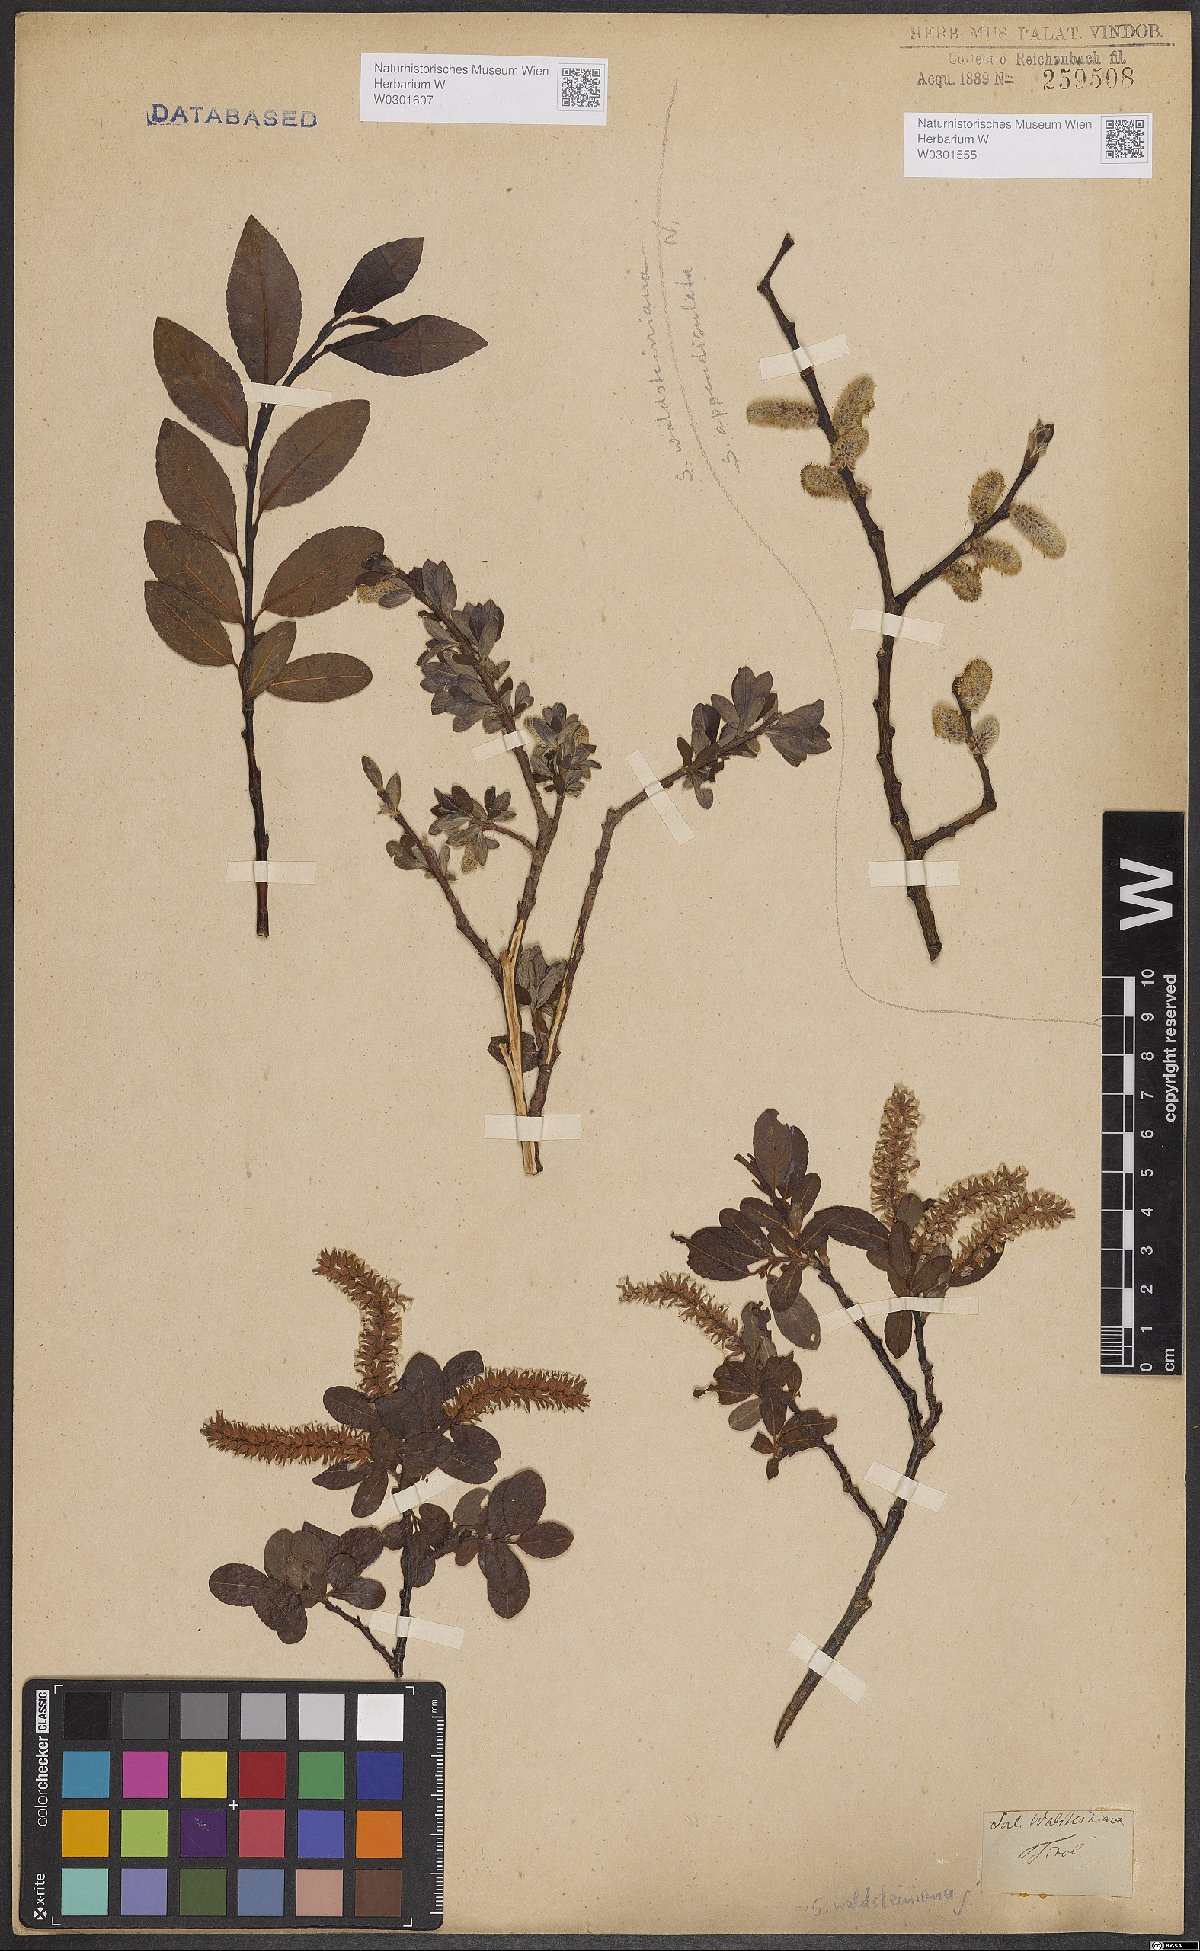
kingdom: Plantae
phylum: Tracheophyta
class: Magnoliopsida
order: Malpighiales
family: Salicaceae
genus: Salix
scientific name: Salix waldsteiniana
